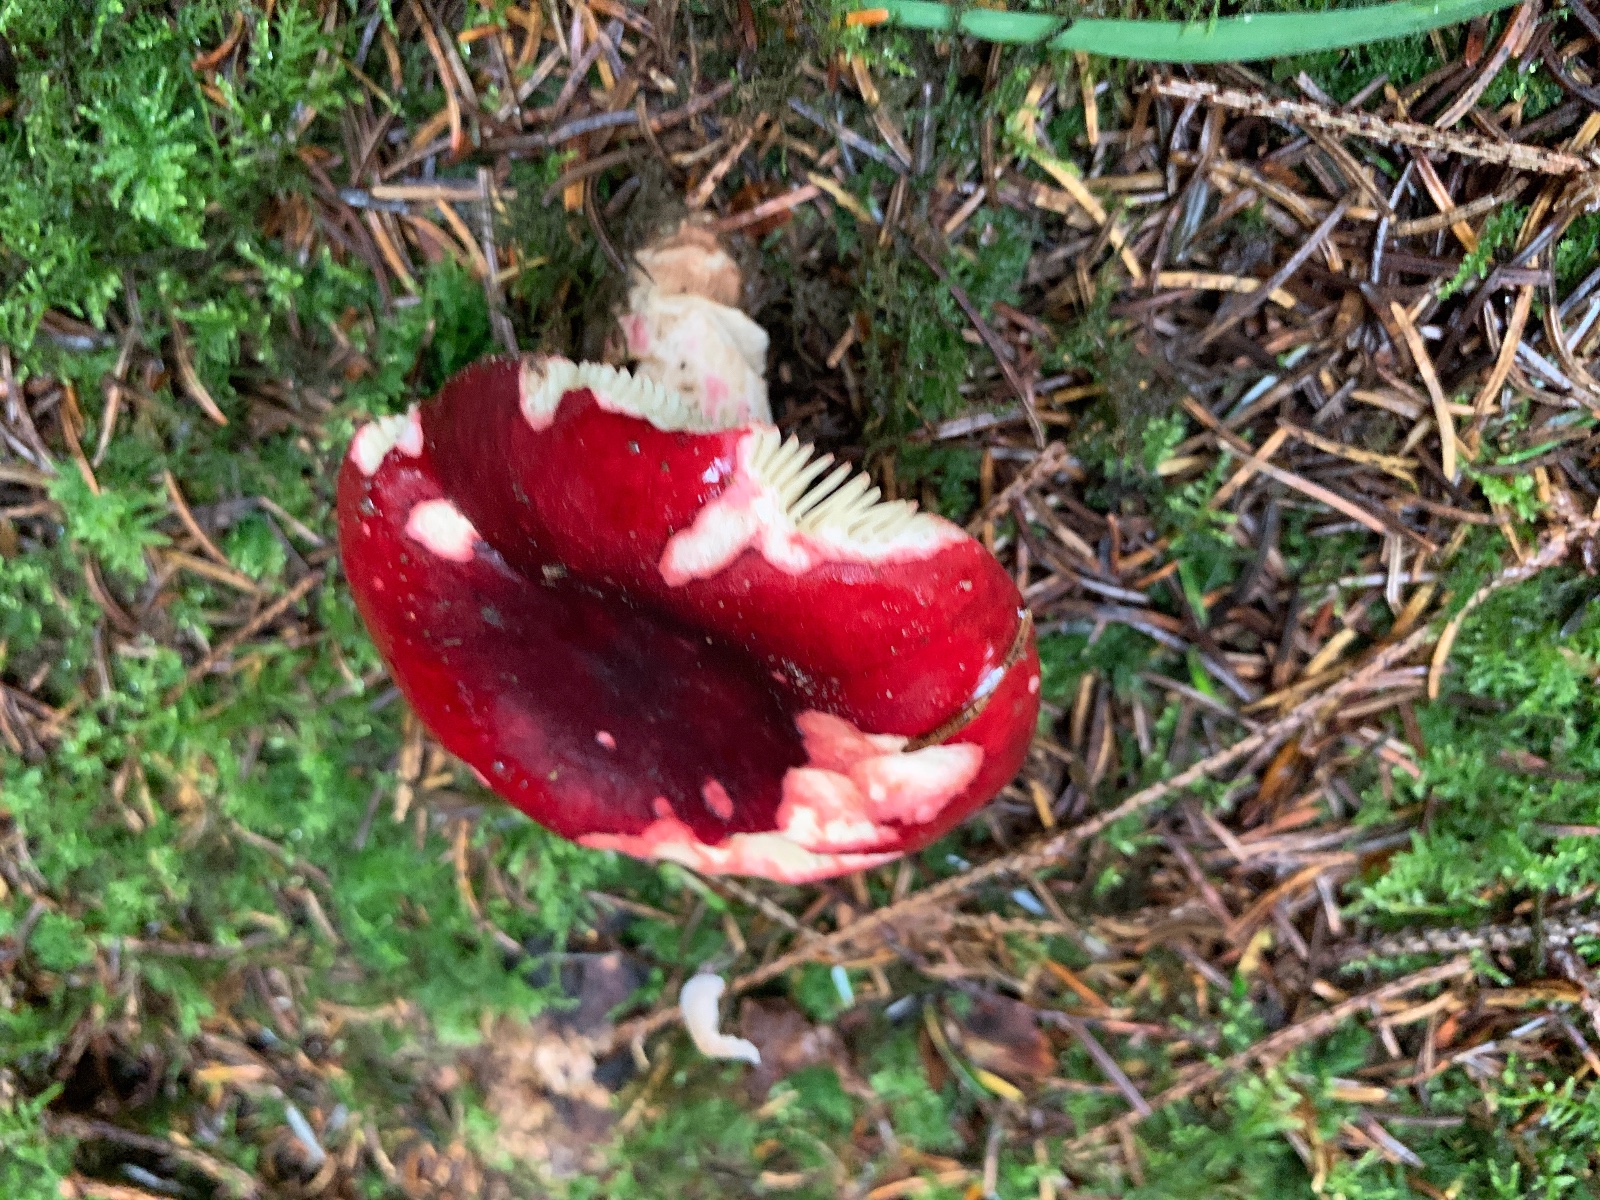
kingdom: Fungi
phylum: Basidiomycota
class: Agaricomycetes
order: Russulales
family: Russulaceae
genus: Russula
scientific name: Russula xerampelina
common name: hummer-skørhat
